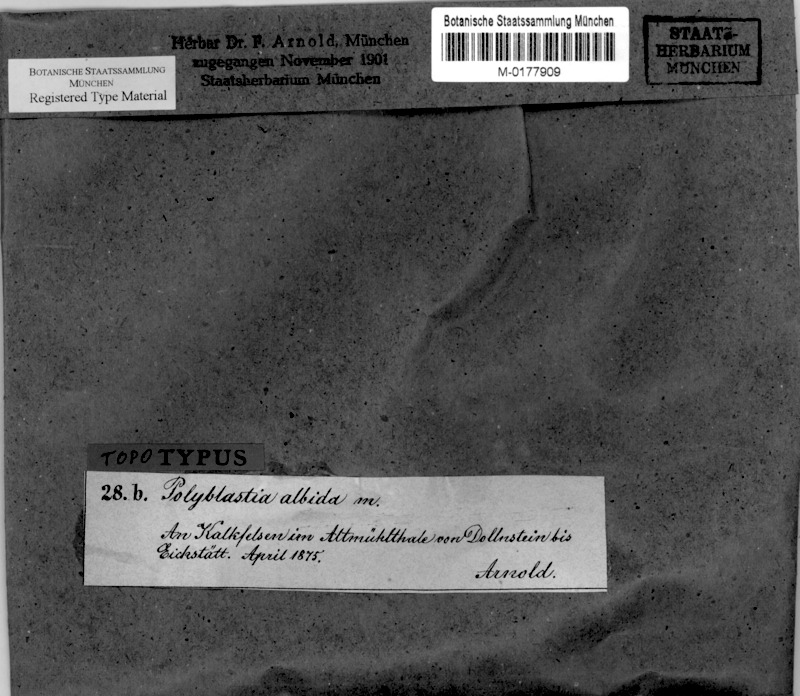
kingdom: Fungi
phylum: Ascomycota
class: Eurotiomycetes
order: Verrucariales
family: Verrucariaceae
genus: Polyblastia
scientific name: Polyblastia albida
